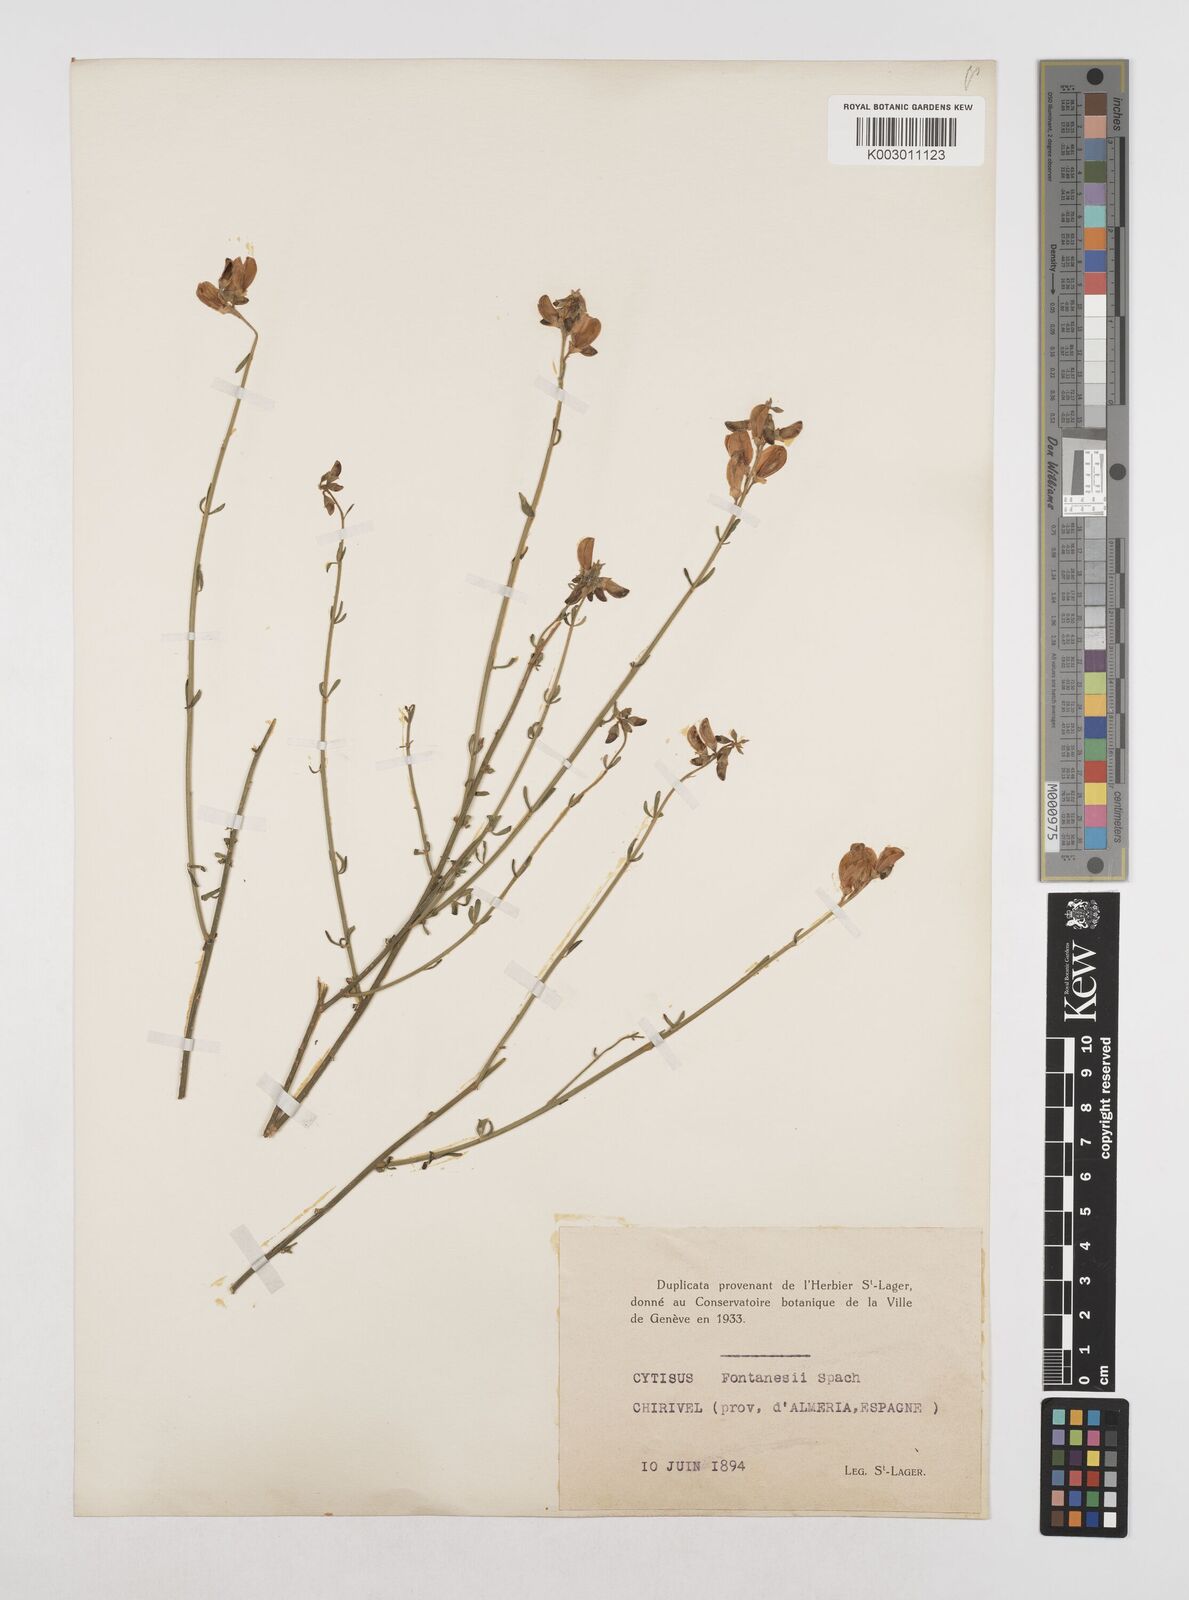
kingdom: Plantae
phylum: Tracheophyta
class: Magnoliopsida
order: Fabales
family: Fabaceae
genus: Cytisus
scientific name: Cytisus fontanesii
